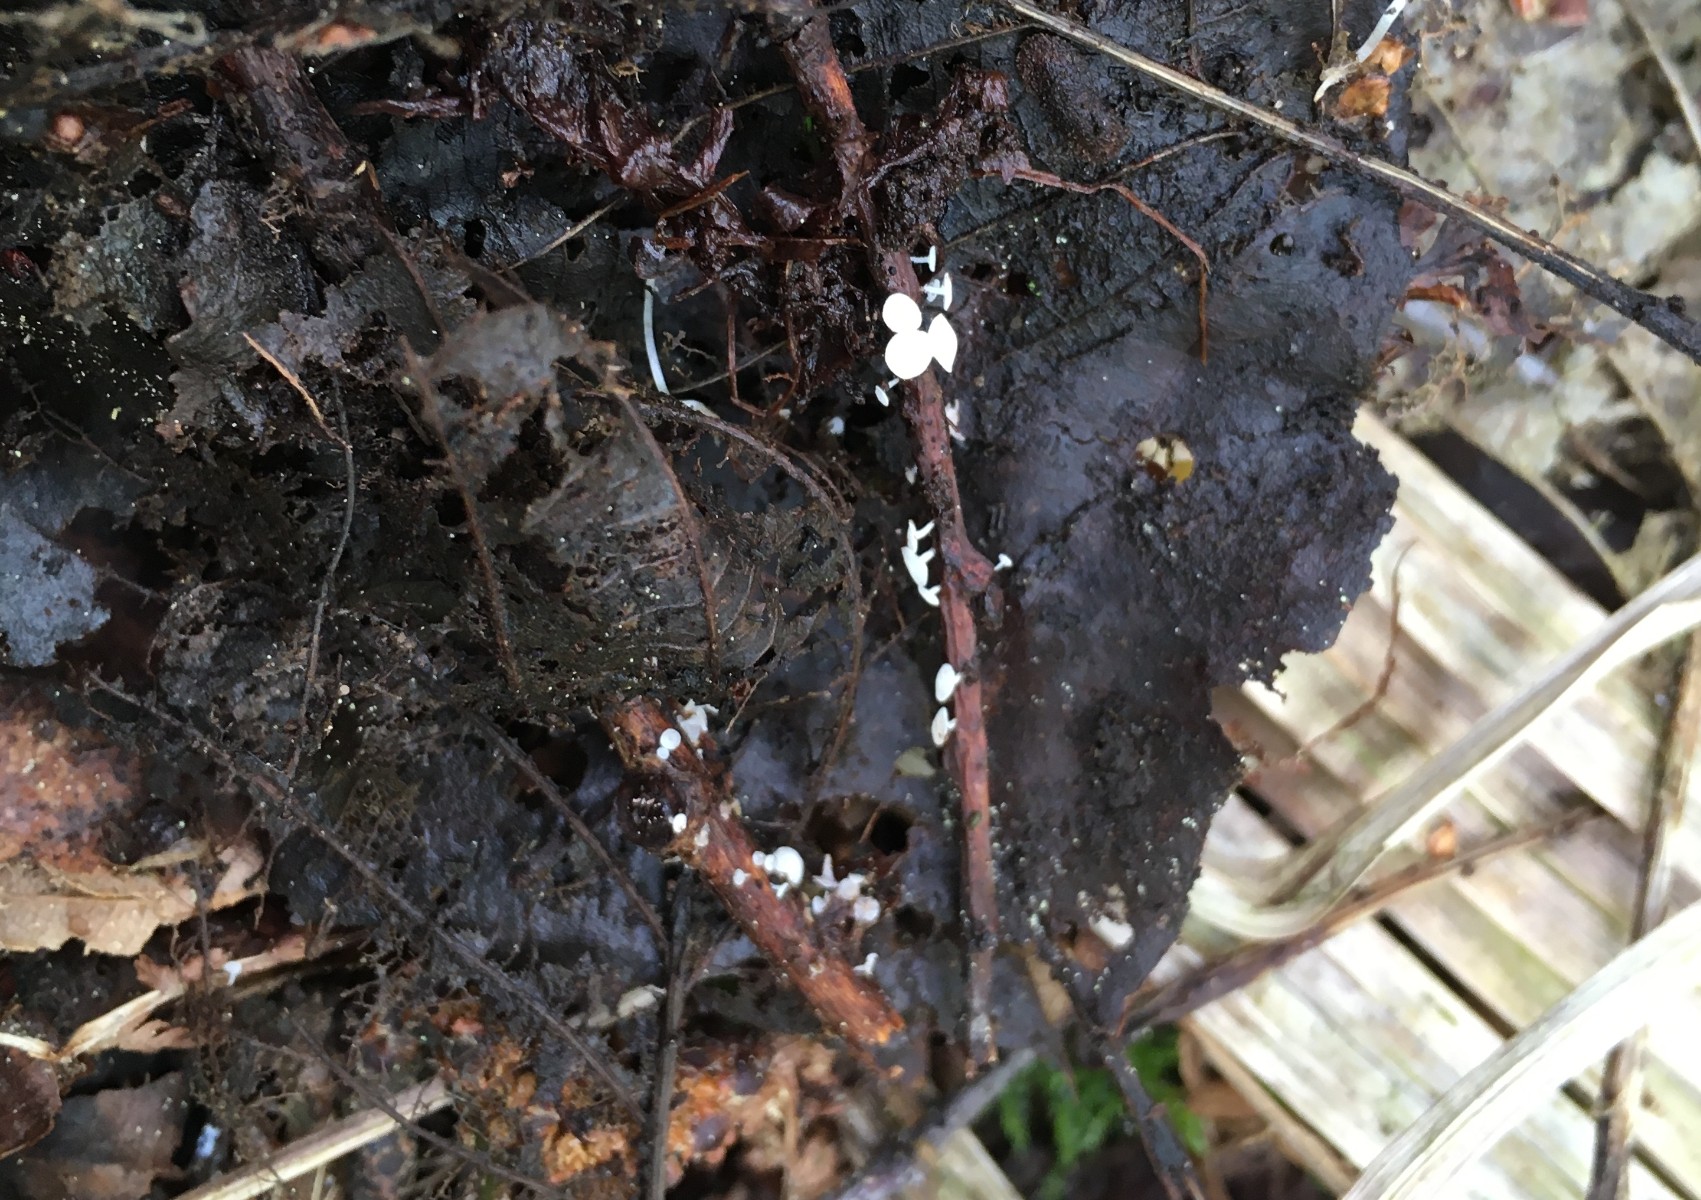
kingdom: Fungi
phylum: Ascomycota
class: Leotiomycetes
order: Helotiales
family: Lachnaceae
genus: Lachnum
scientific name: Lachnum virgineum
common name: jomfru-frynseskive
